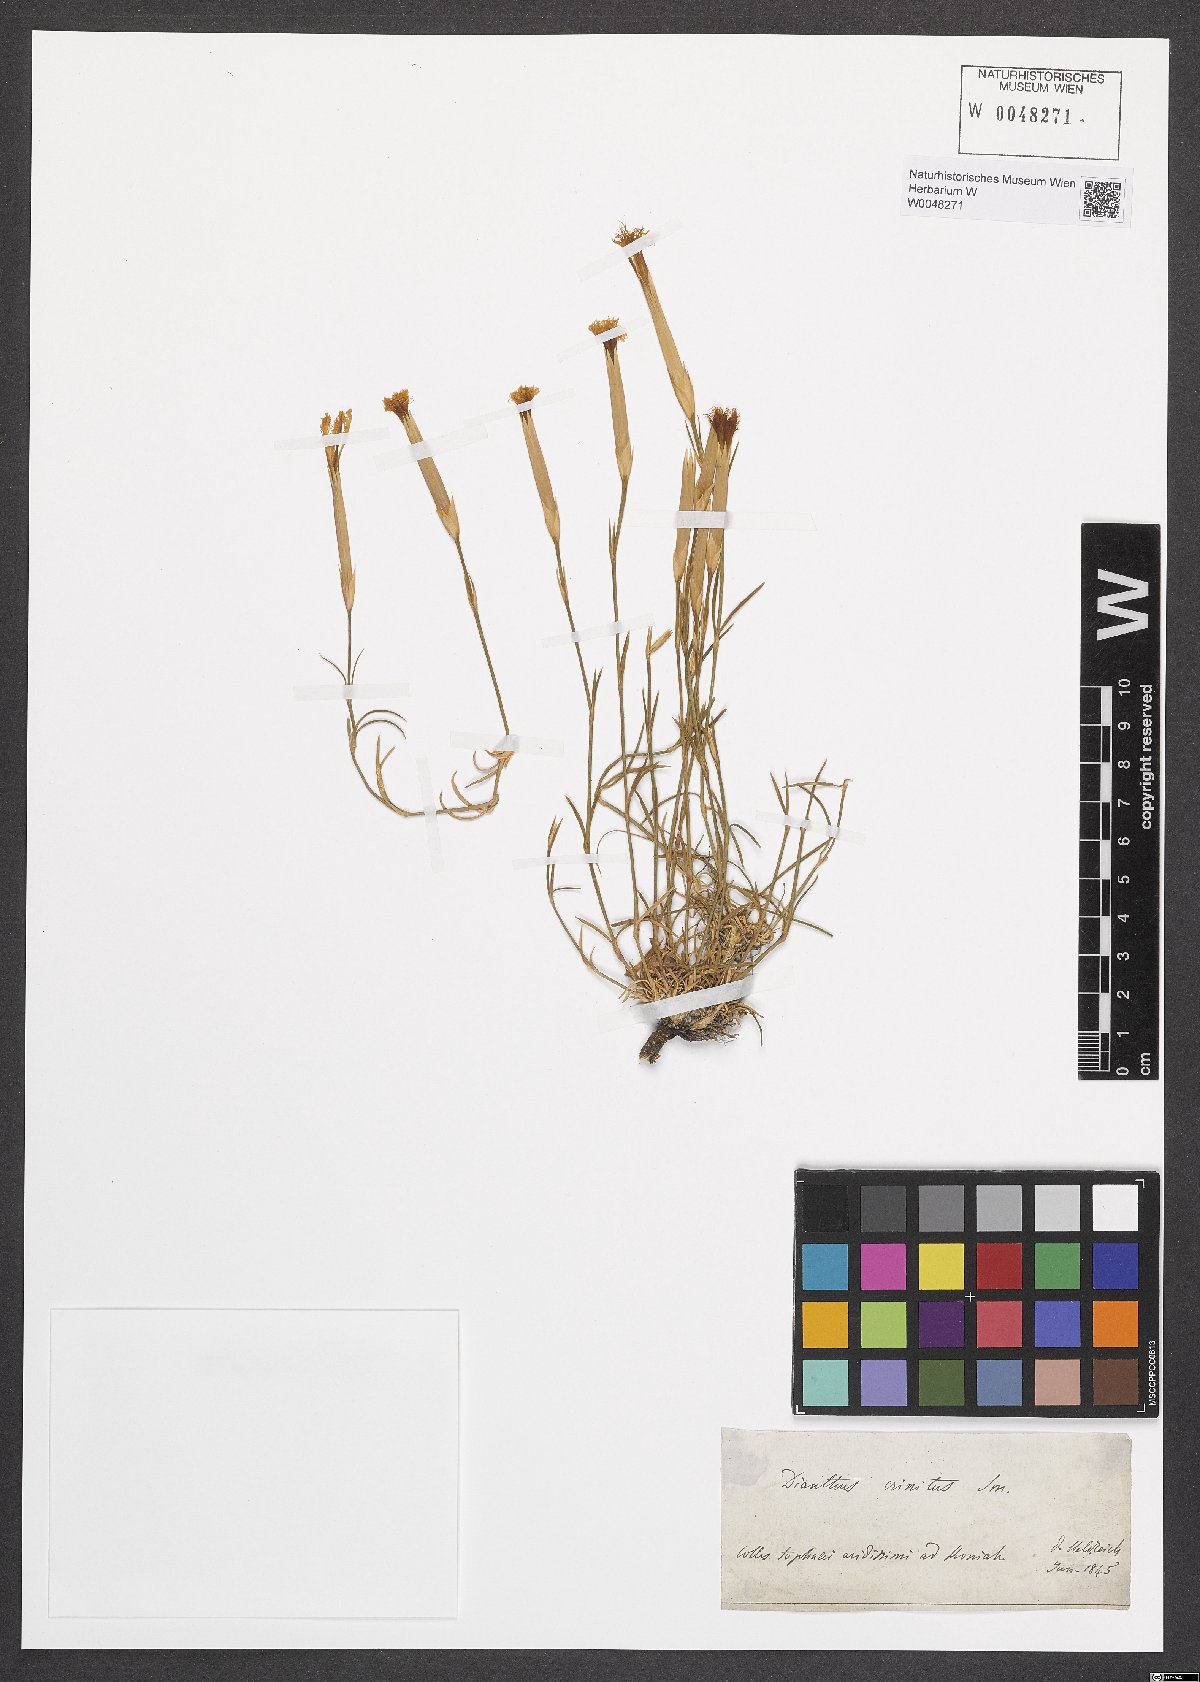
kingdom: Plantae
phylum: Tracheophyta
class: Magnoliopsida
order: Caryophyllales
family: Caryophyllaceae
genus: Dianthus
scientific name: Dianthus crinitus
